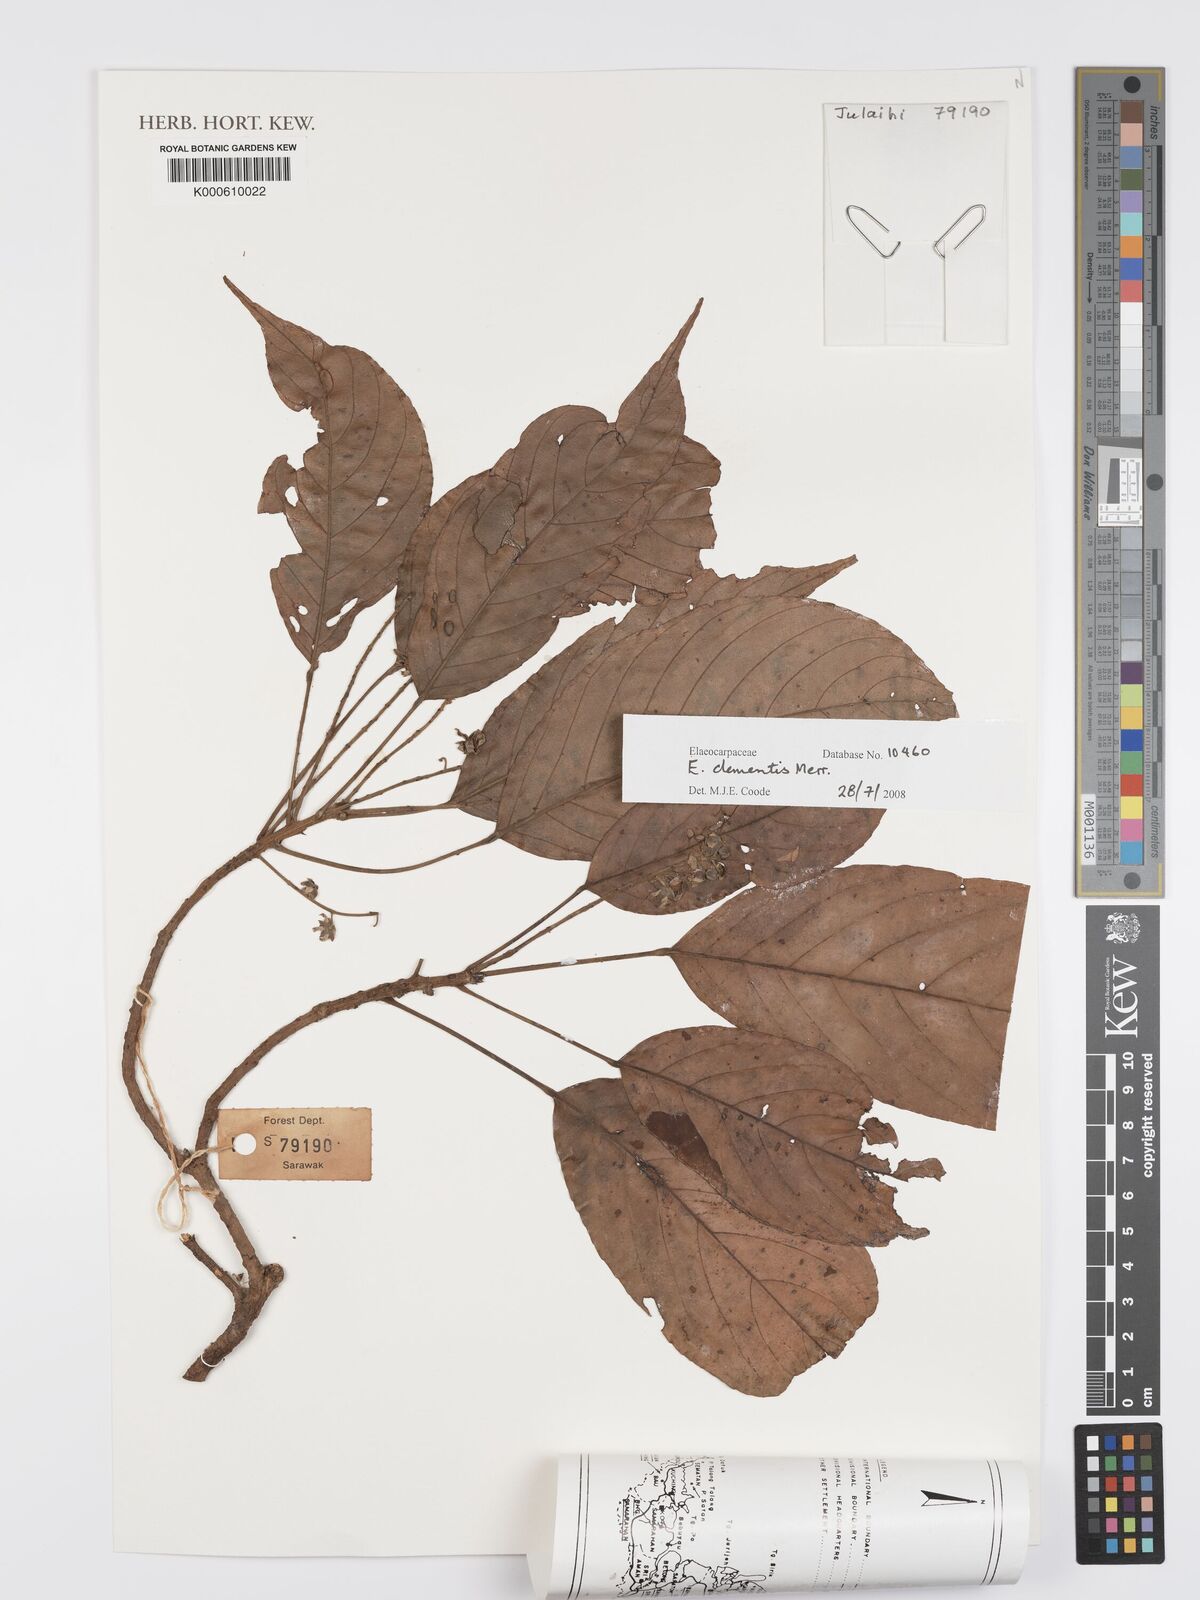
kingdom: Plantae
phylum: Tracheophyta
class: Magnoliopsida
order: Oxalidales
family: Elaeocarpaceae
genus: Elaeocarpus
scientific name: Elaeocarpus clementis
